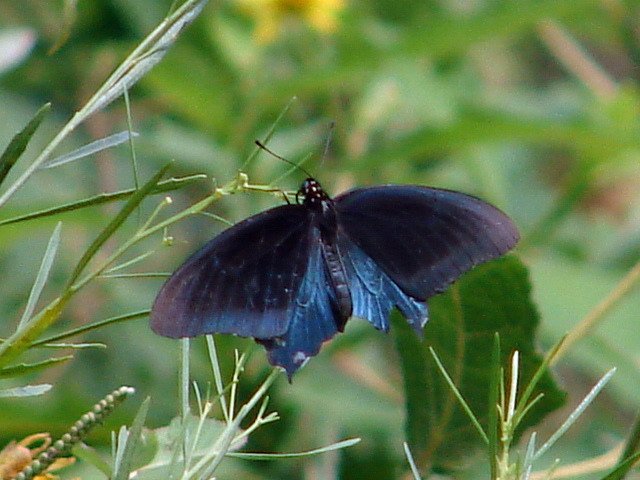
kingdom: Animalia
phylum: Arthropoda
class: Insecta
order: Lepidoptera
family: Papilionidae
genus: Battus
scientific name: Battus philenor
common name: Pipevine Swallowtail
